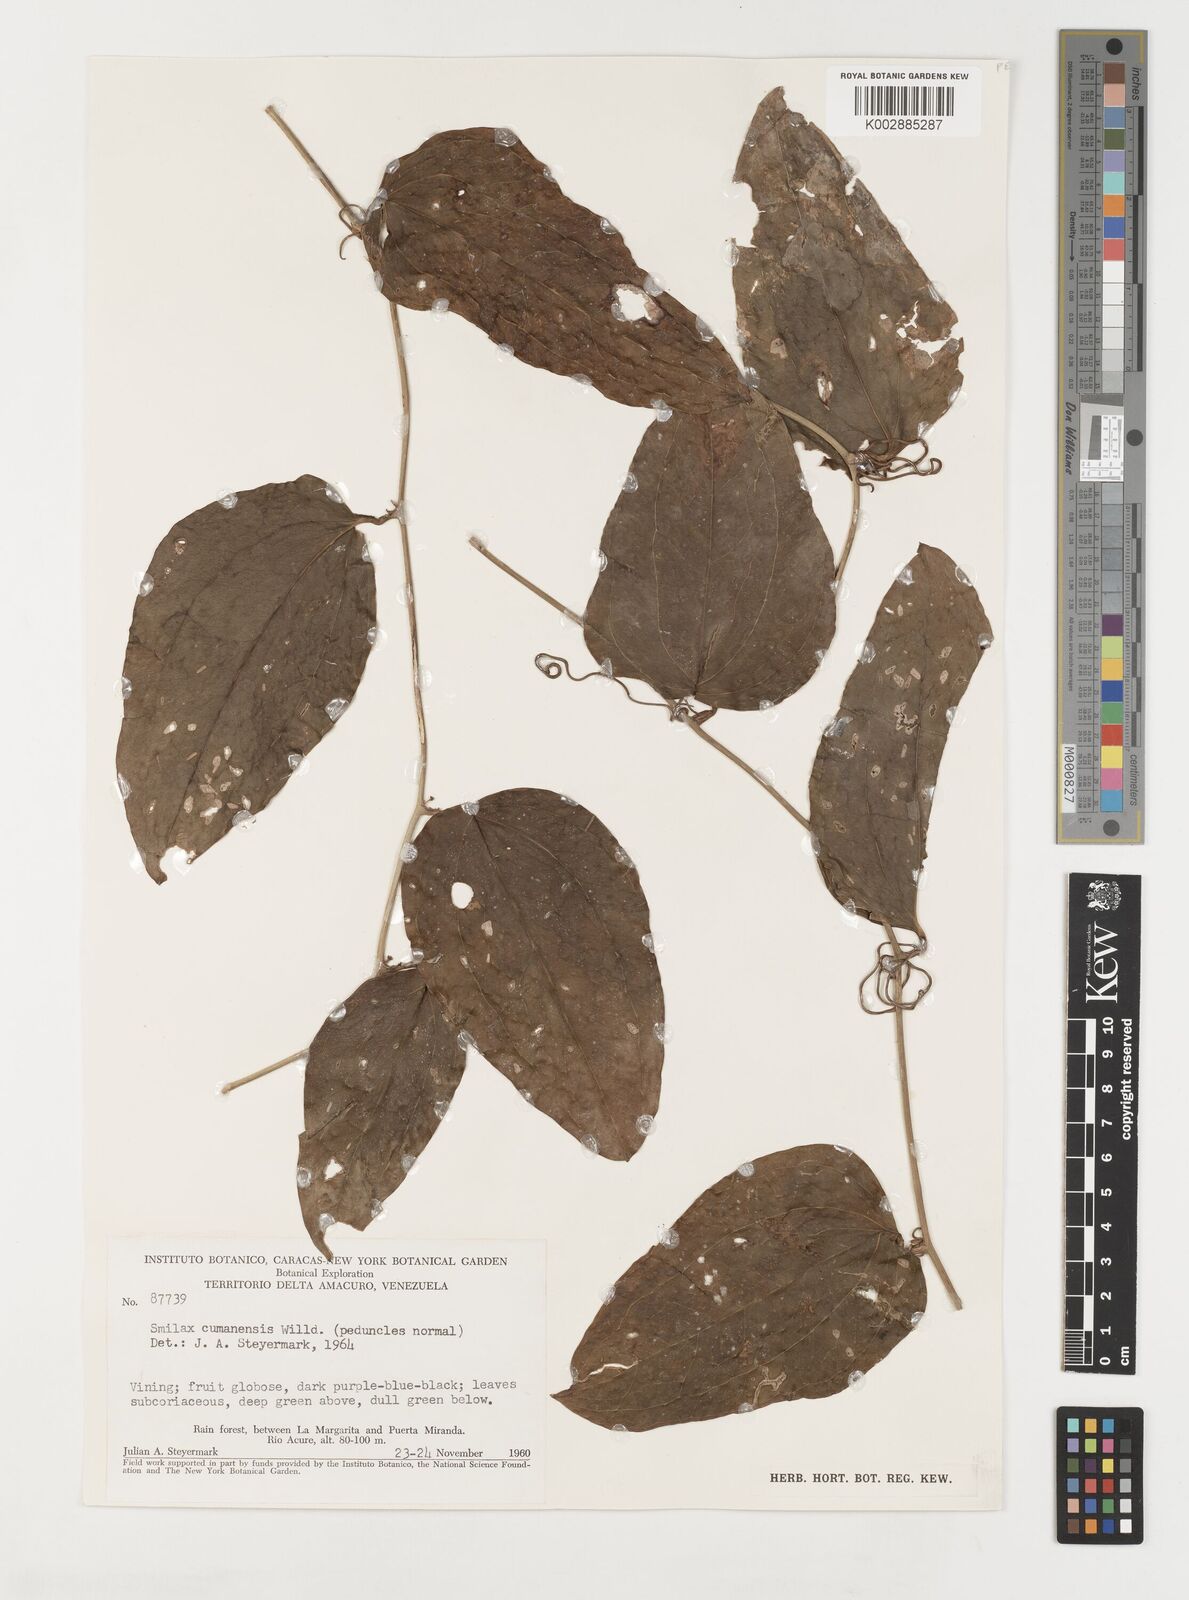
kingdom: Plantae
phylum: Tracheophyta
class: Liliopsida
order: Liliales
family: Smilacaceae
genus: Smilax
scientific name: Smilax oblongata
